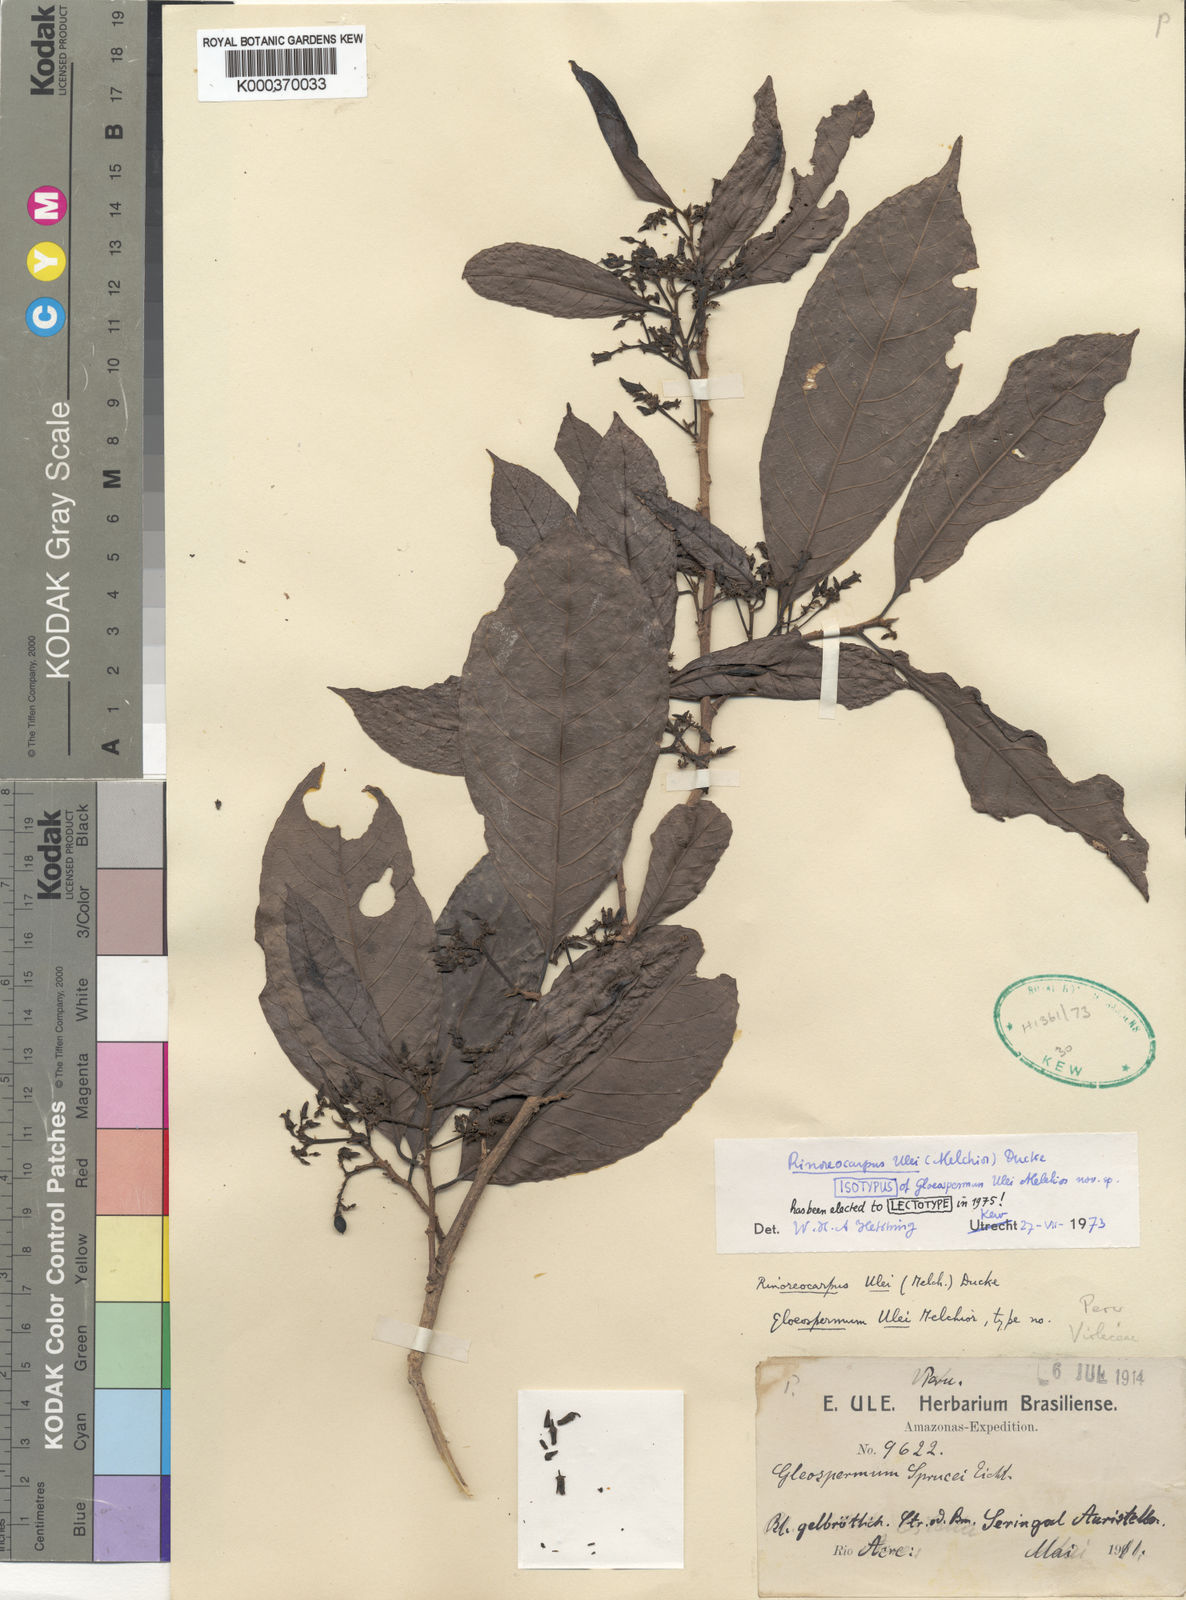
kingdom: Plantae
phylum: Tracheophyta
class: Magnoliopsida
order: Malpighiales
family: Violaceae
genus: Rinoreocarpus
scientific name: Rinoreocarpus ulei
